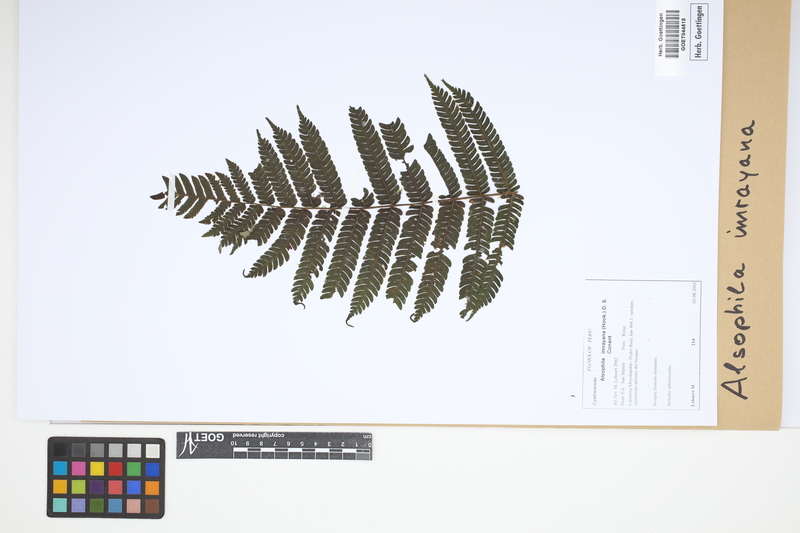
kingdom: Plantae
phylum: Tracheophyta
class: Polypodiopsida
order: Cyatheales
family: Cyatheaceae
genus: Alsophila
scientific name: Alsophila imrayana
